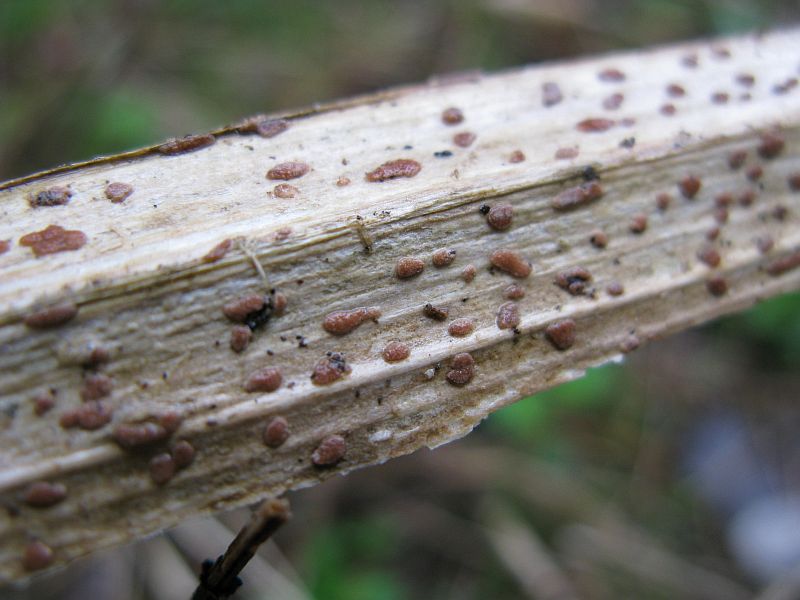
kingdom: Fungi
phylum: Ascomycota
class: Sordariomycetes
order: Hypocreales
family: Nectriaceae
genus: Sarcopodium
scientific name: Sarcopodium circinatum
